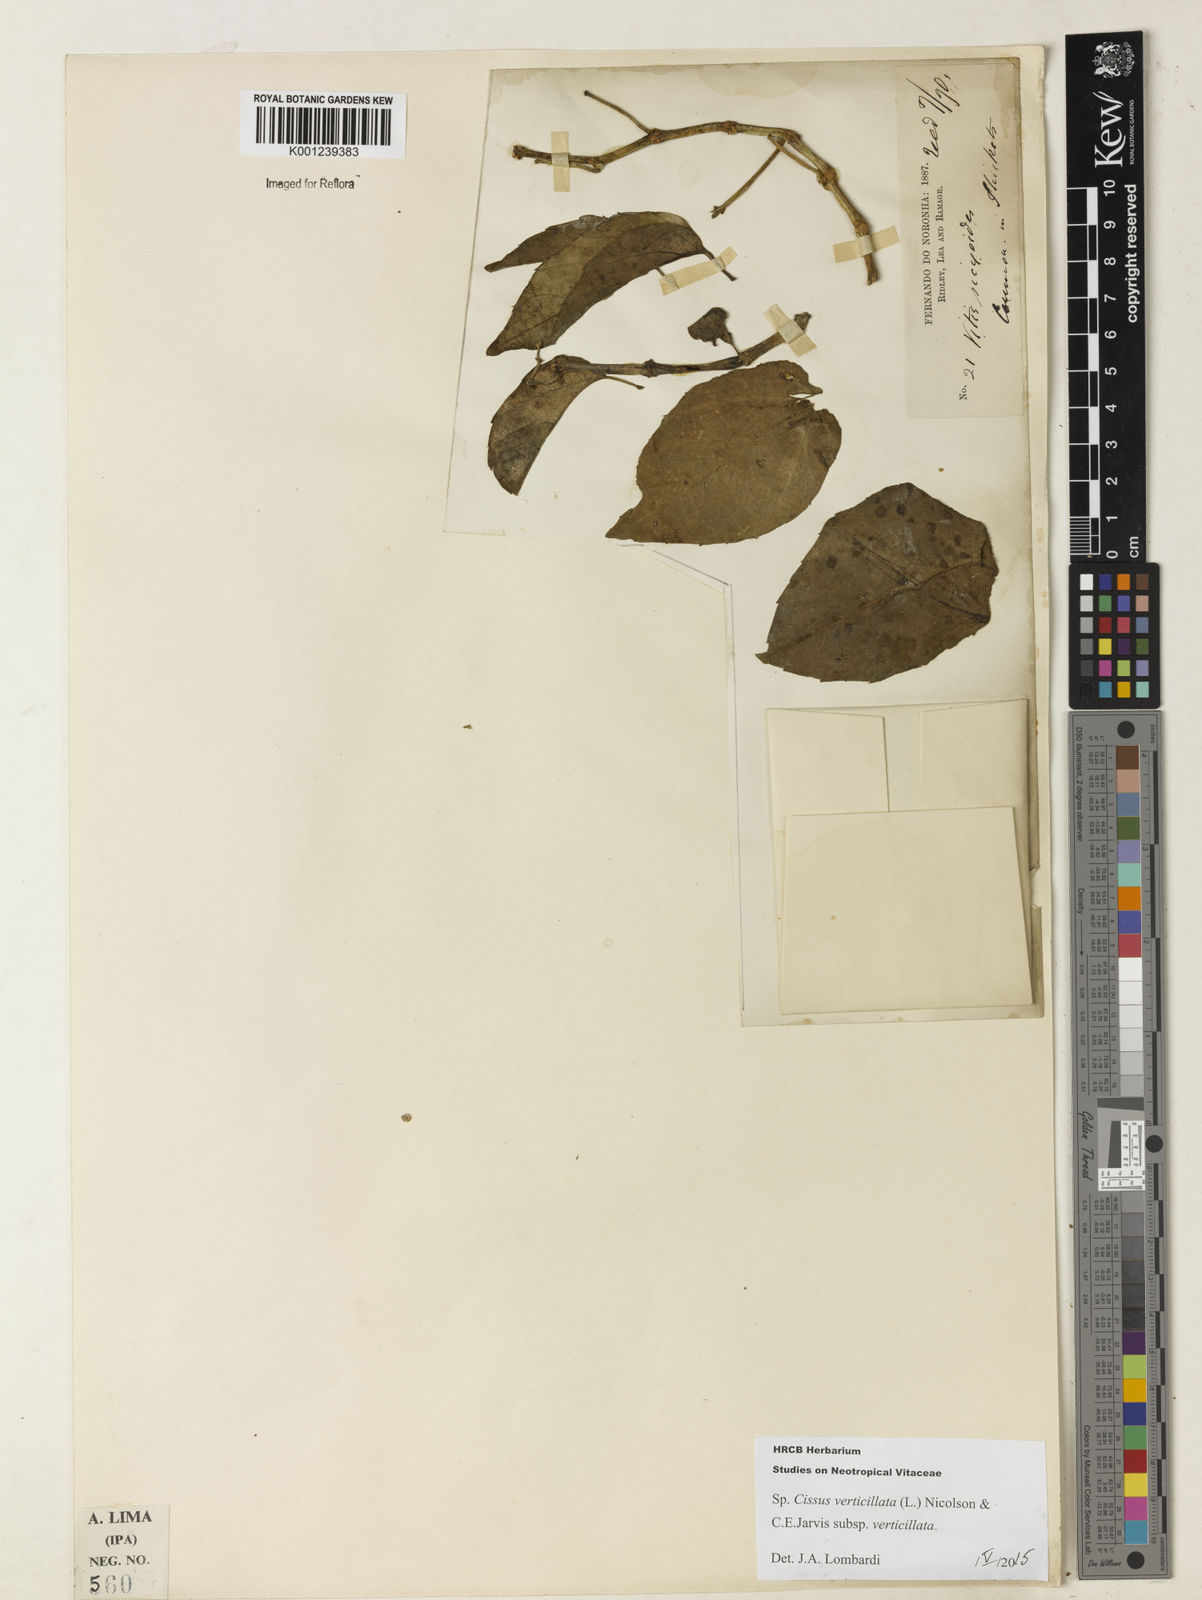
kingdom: Plantae
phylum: Tracheophyta
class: Magnoliopsida
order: Vitales
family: Vitaceae
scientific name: Vitaceae
